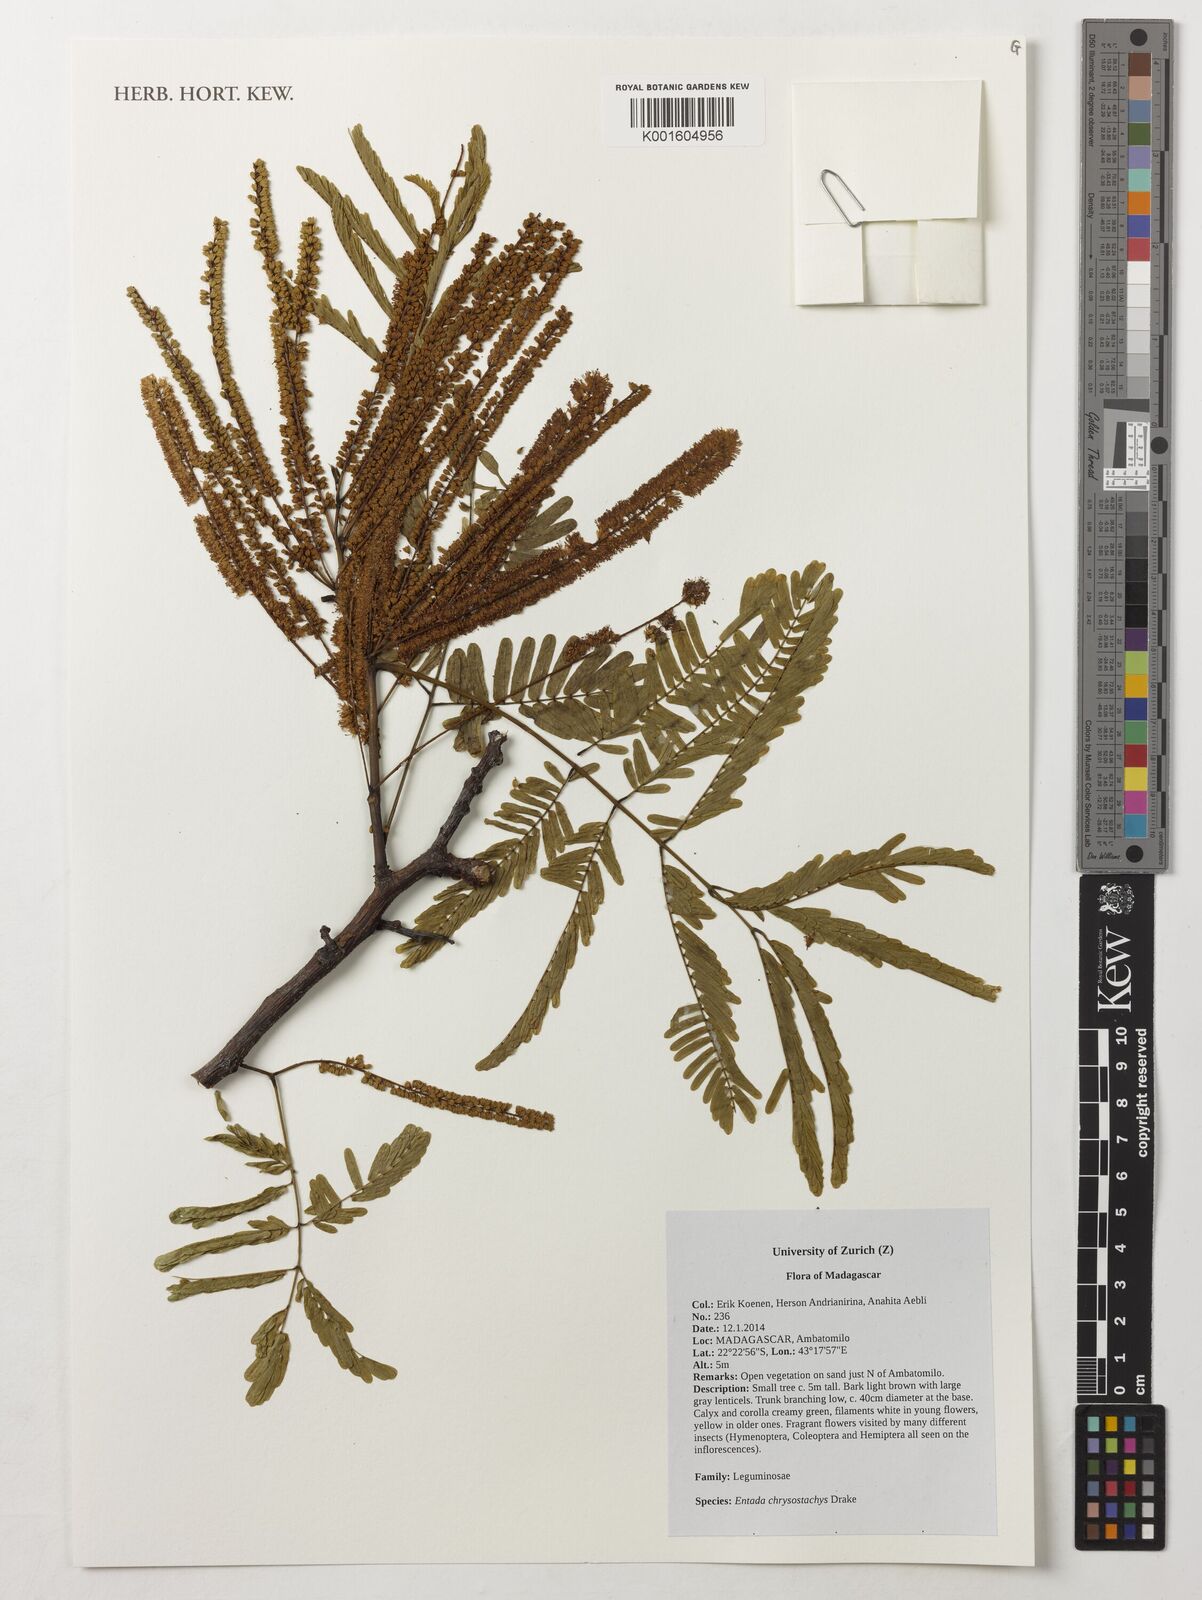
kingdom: Plantae
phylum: Tracheophyta
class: Magnoliopsida
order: Fabales
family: Fabaceae
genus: Entada
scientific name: Entada chrysostachys
